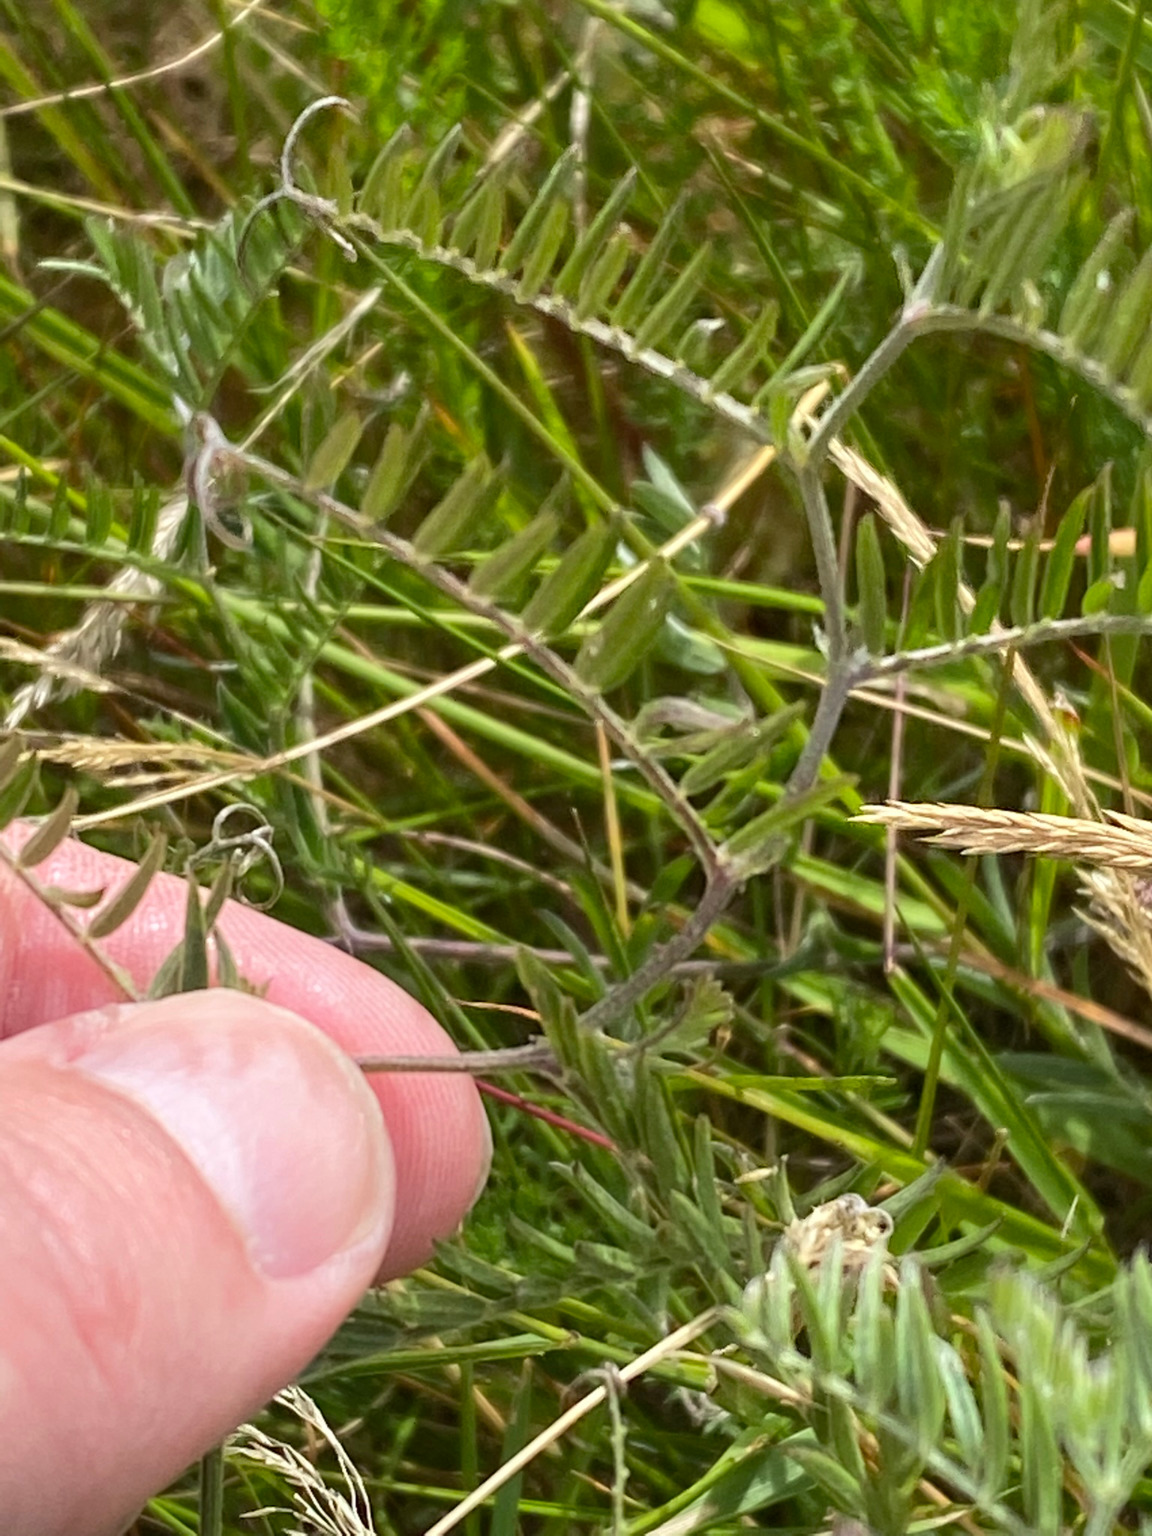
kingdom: Plantae
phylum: Tracheophyta
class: Magnoliopsida
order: Fabales
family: Fabaceae
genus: Vicia
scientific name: Vicia cracca
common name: Muse-vikke
